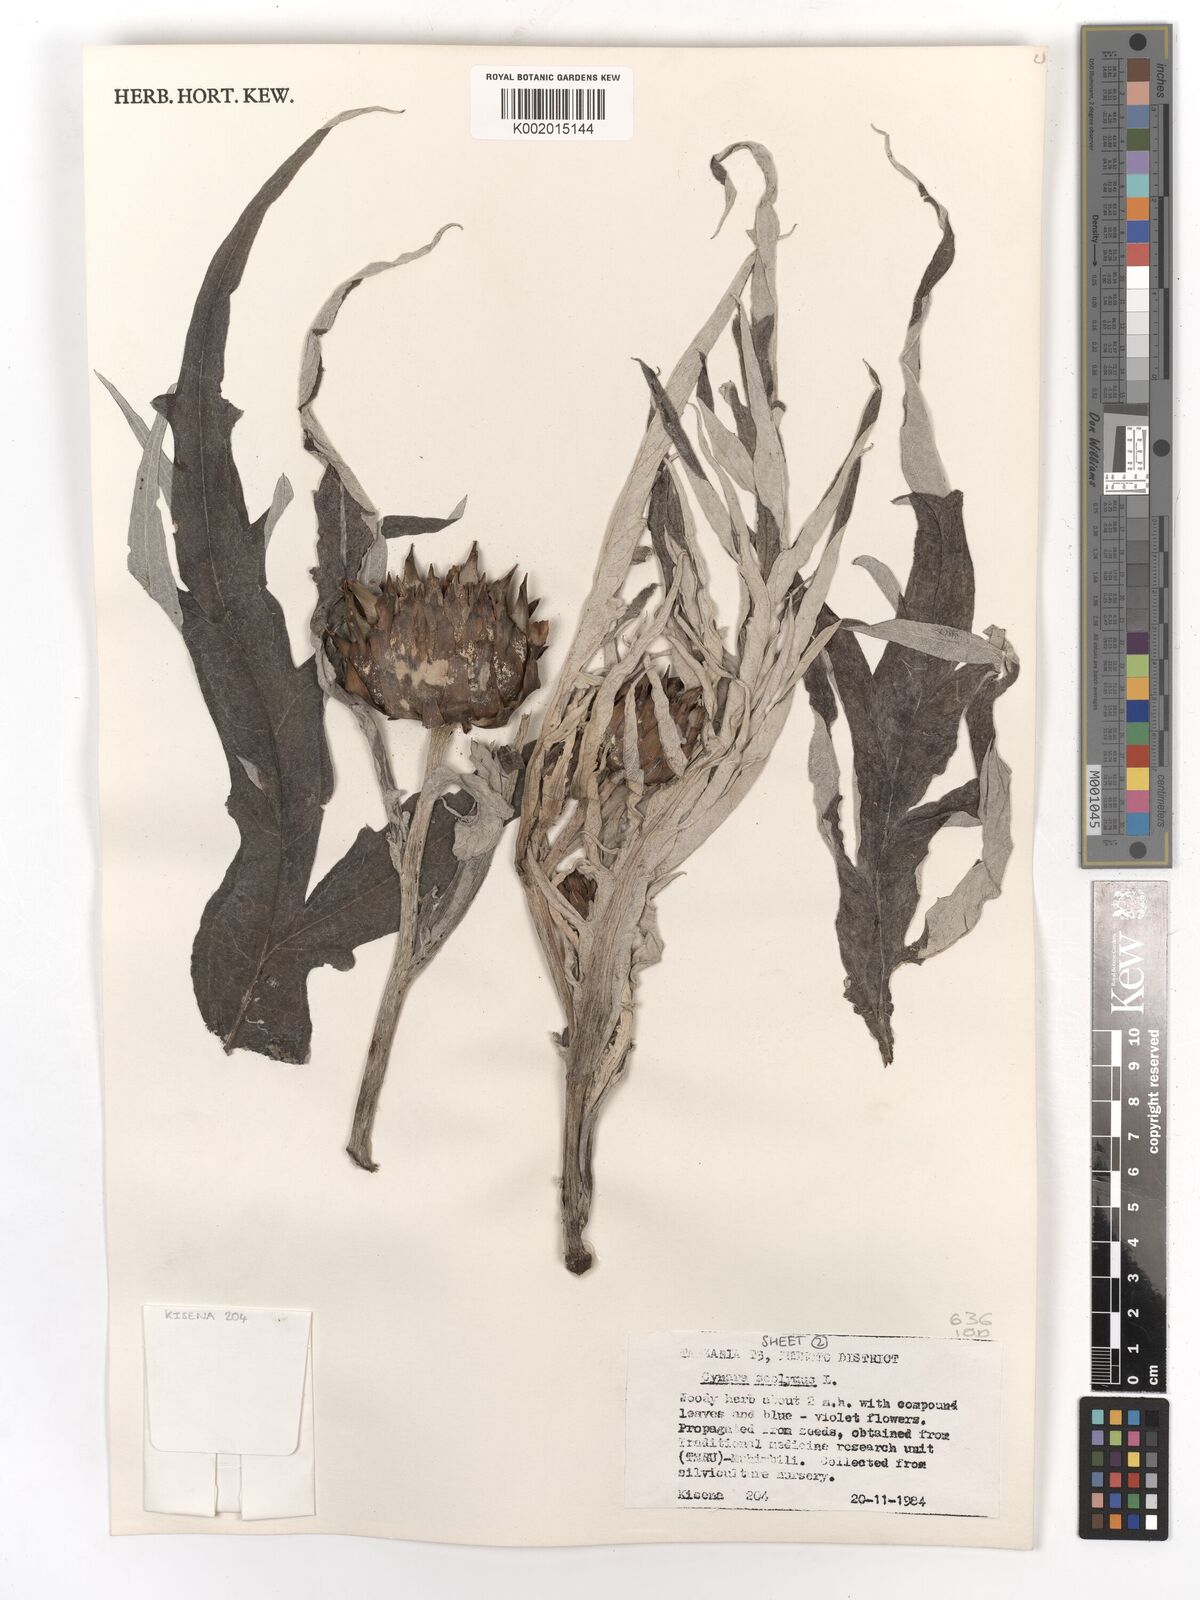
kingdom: Plantae
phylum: Tracheophyta
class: Magnoliopsida
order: Asterales
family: Asteraceae
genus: Cynara
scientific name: Cynara cardunculus
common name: Globe artichoke
